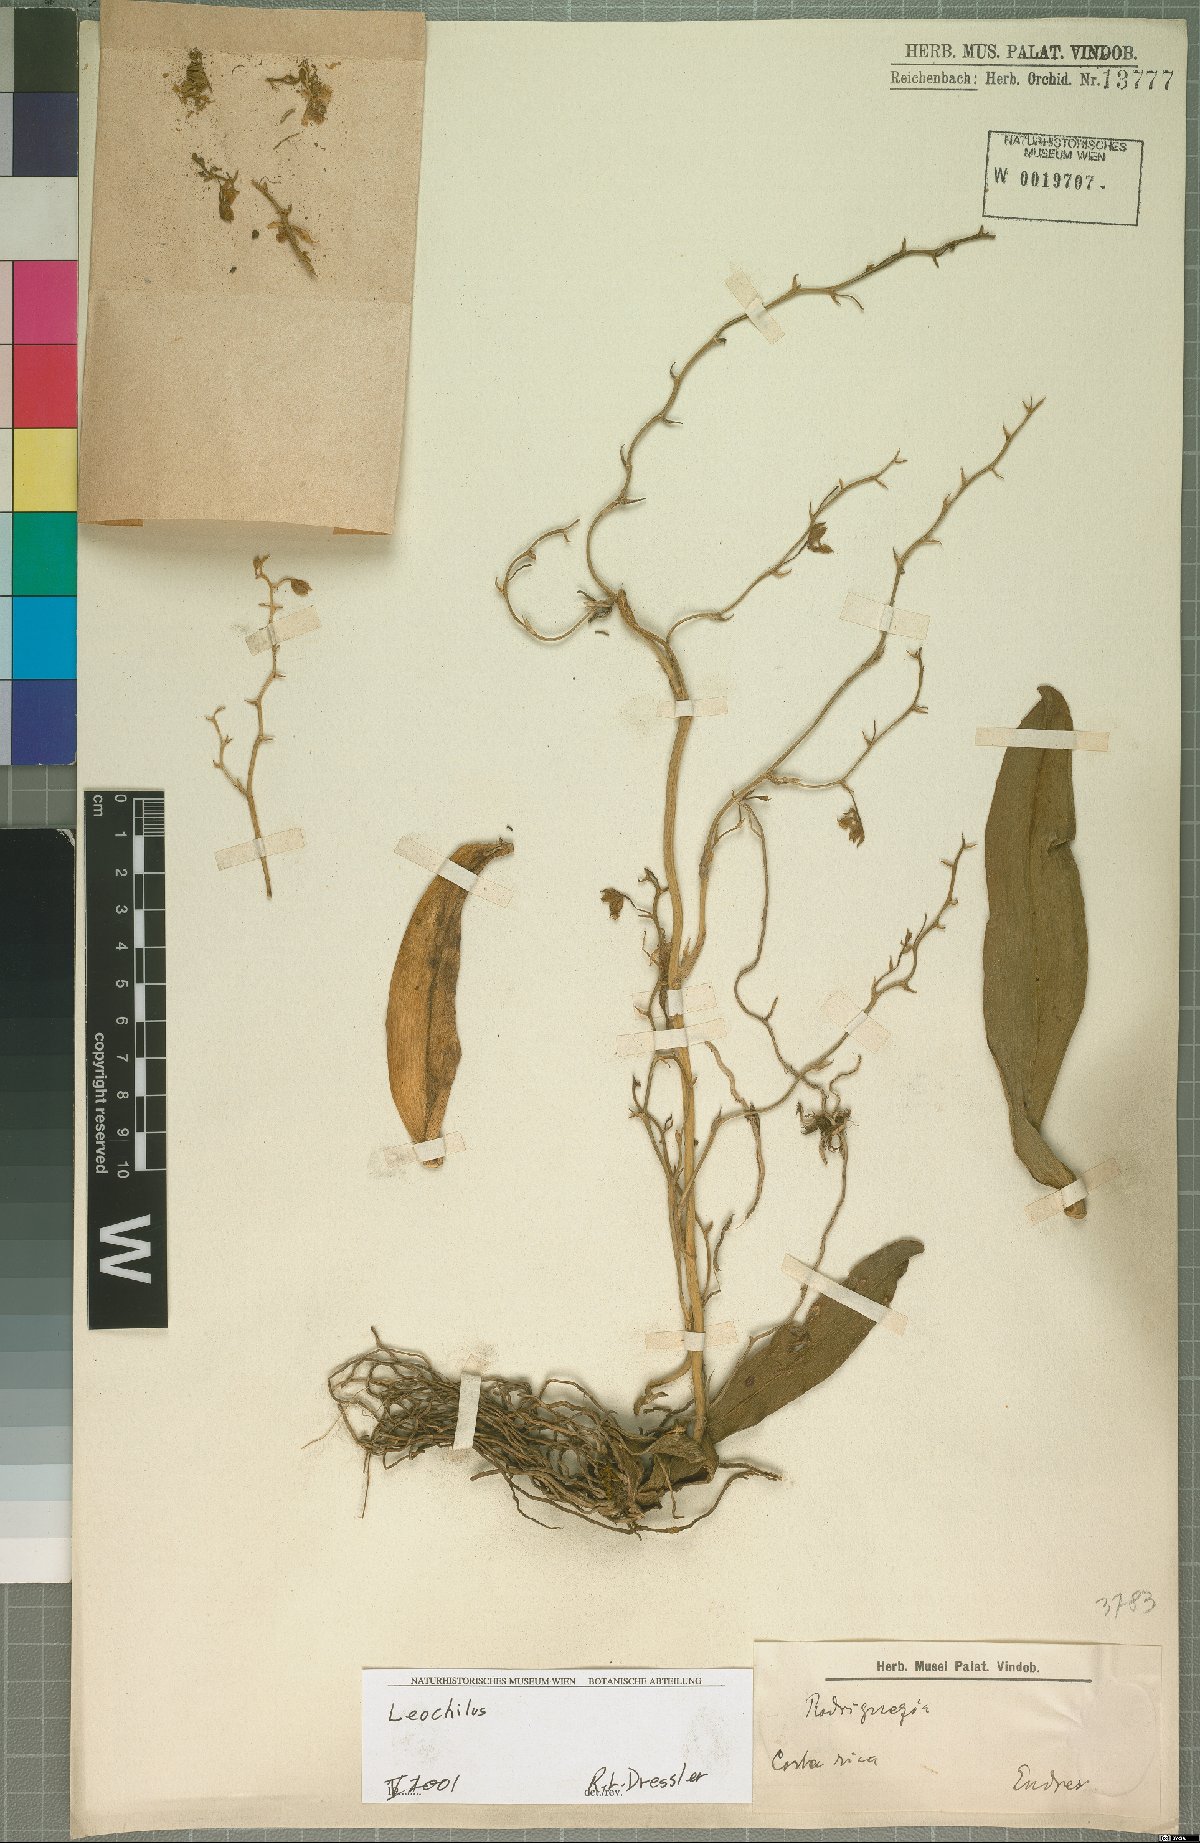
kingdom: Plantae
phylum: Tracheophyta
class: Liliopsida
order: Asparagales
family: Orchidaceae
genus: Leochilus
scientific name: Leochilus
